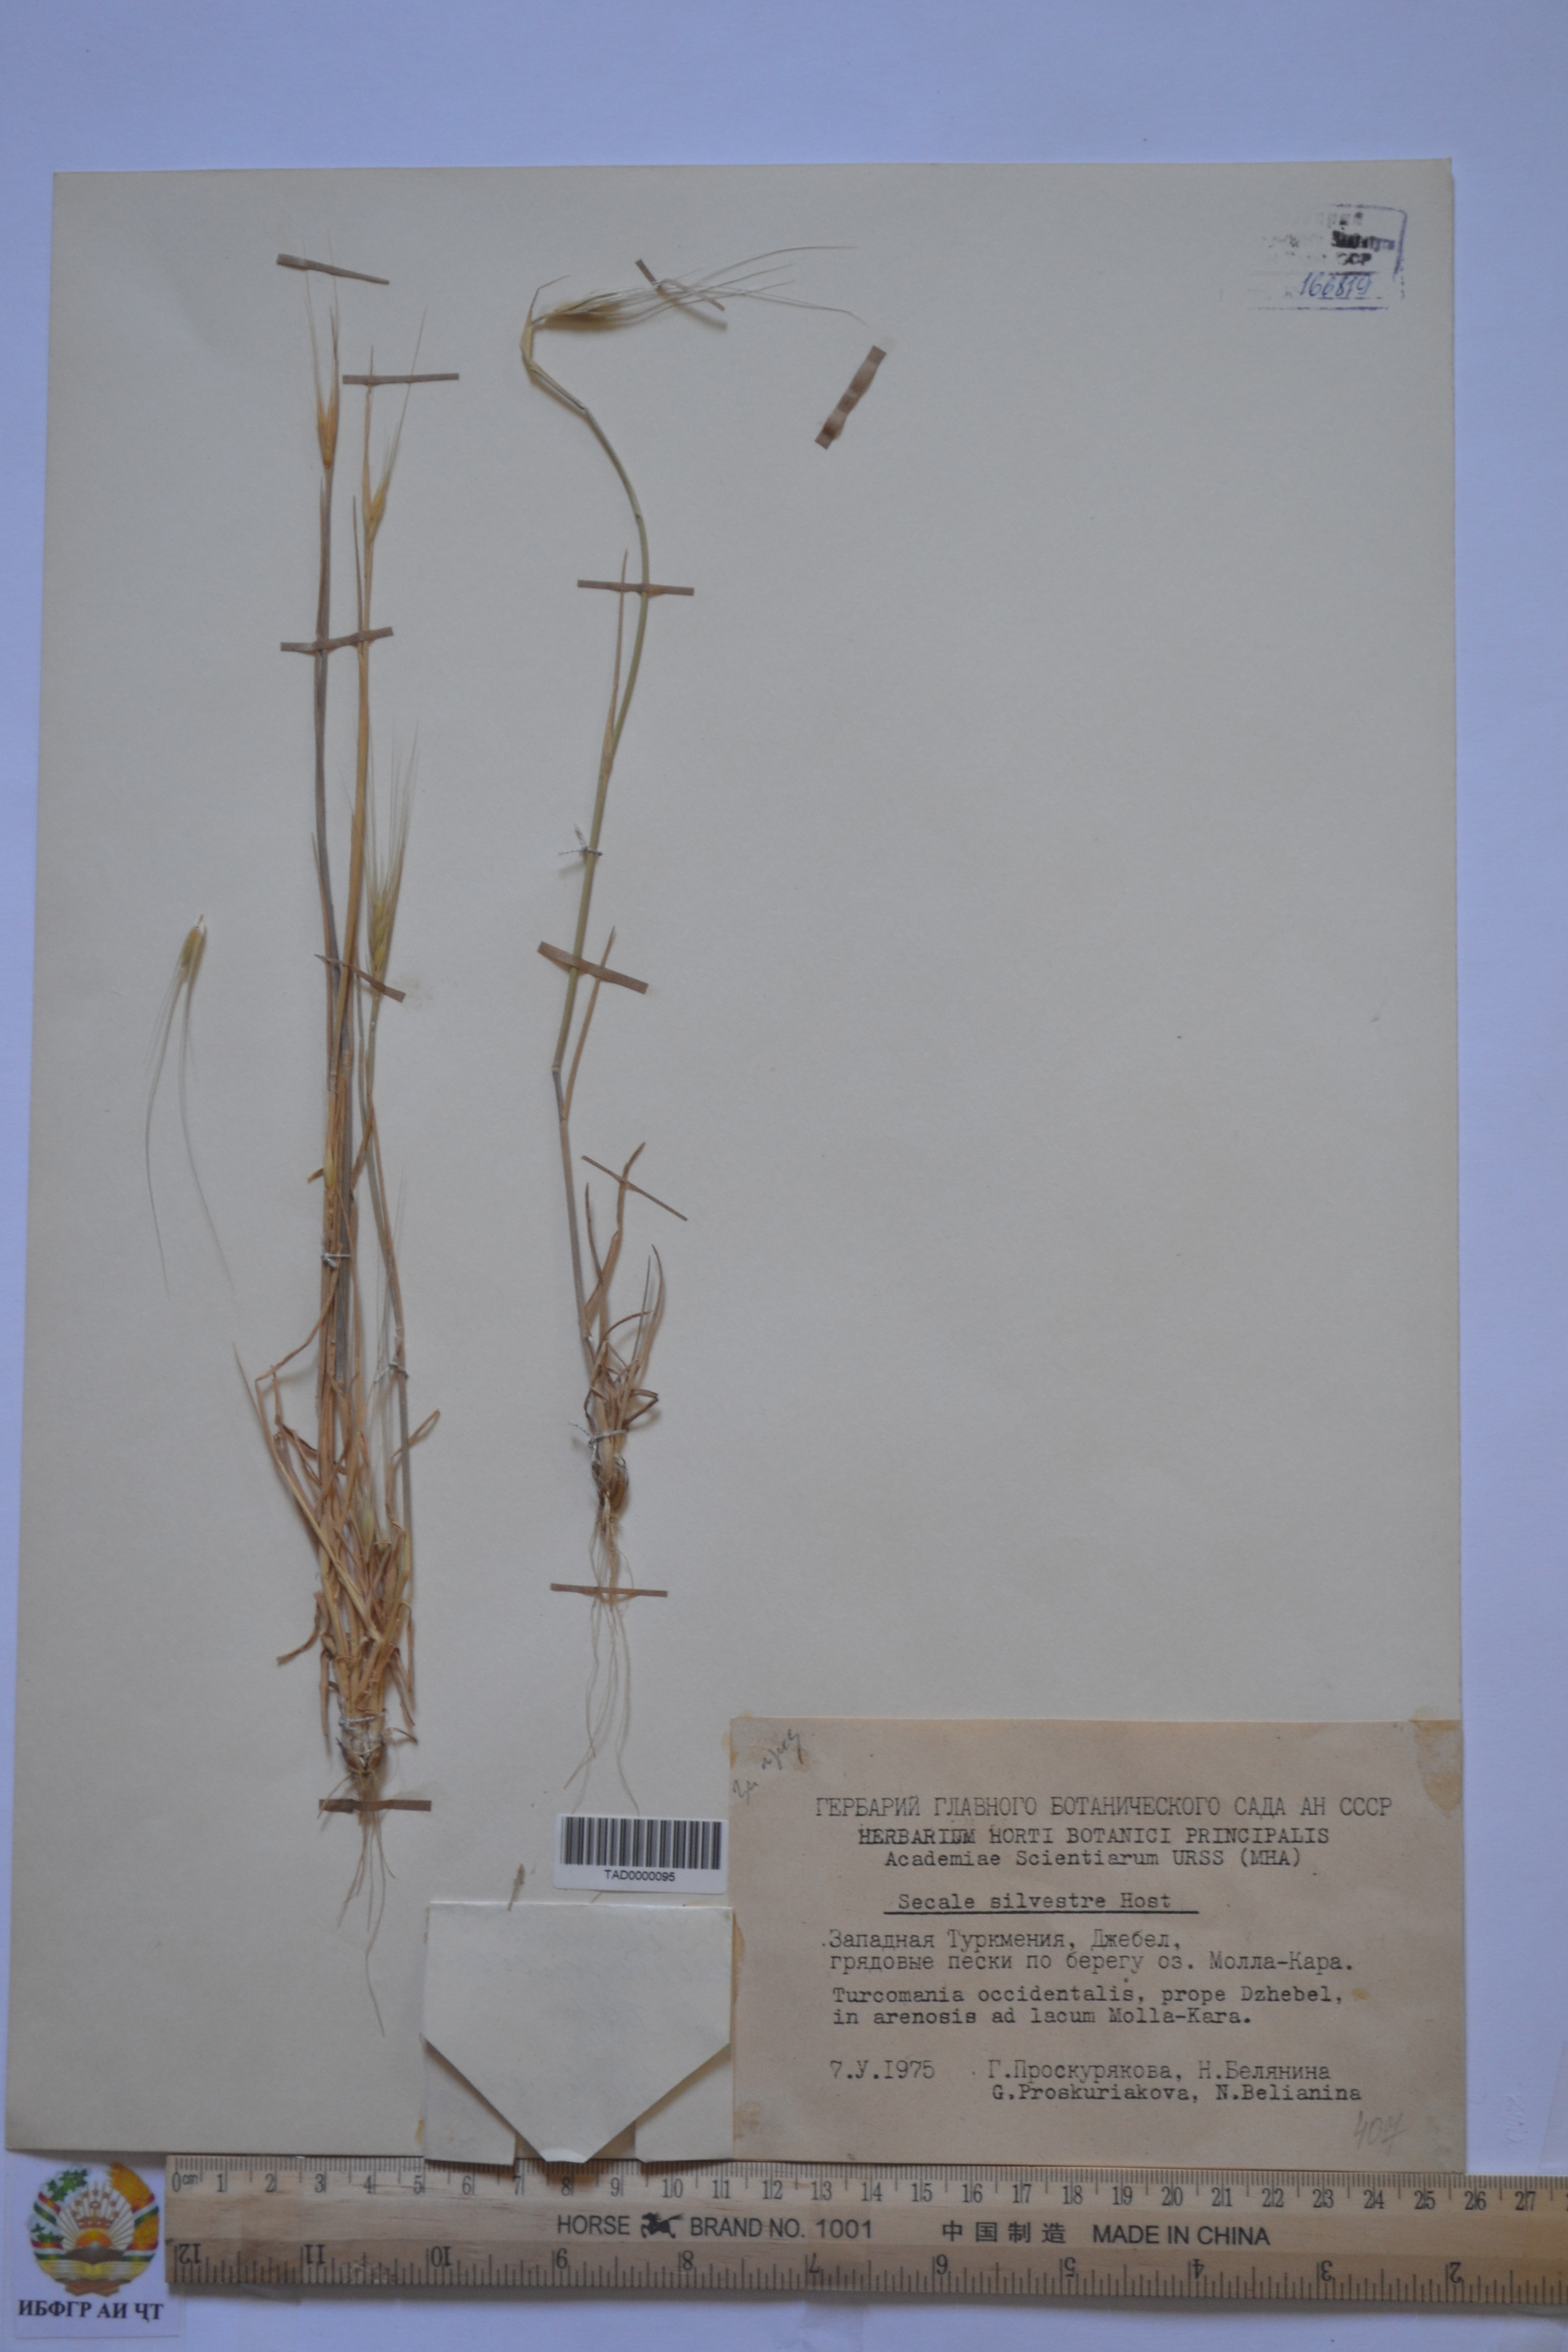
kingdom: Plantae
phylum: Tracheophyta
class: Liliopsida
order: Poales
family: Poaceae
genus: Secale
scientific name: Secale sylvestre
